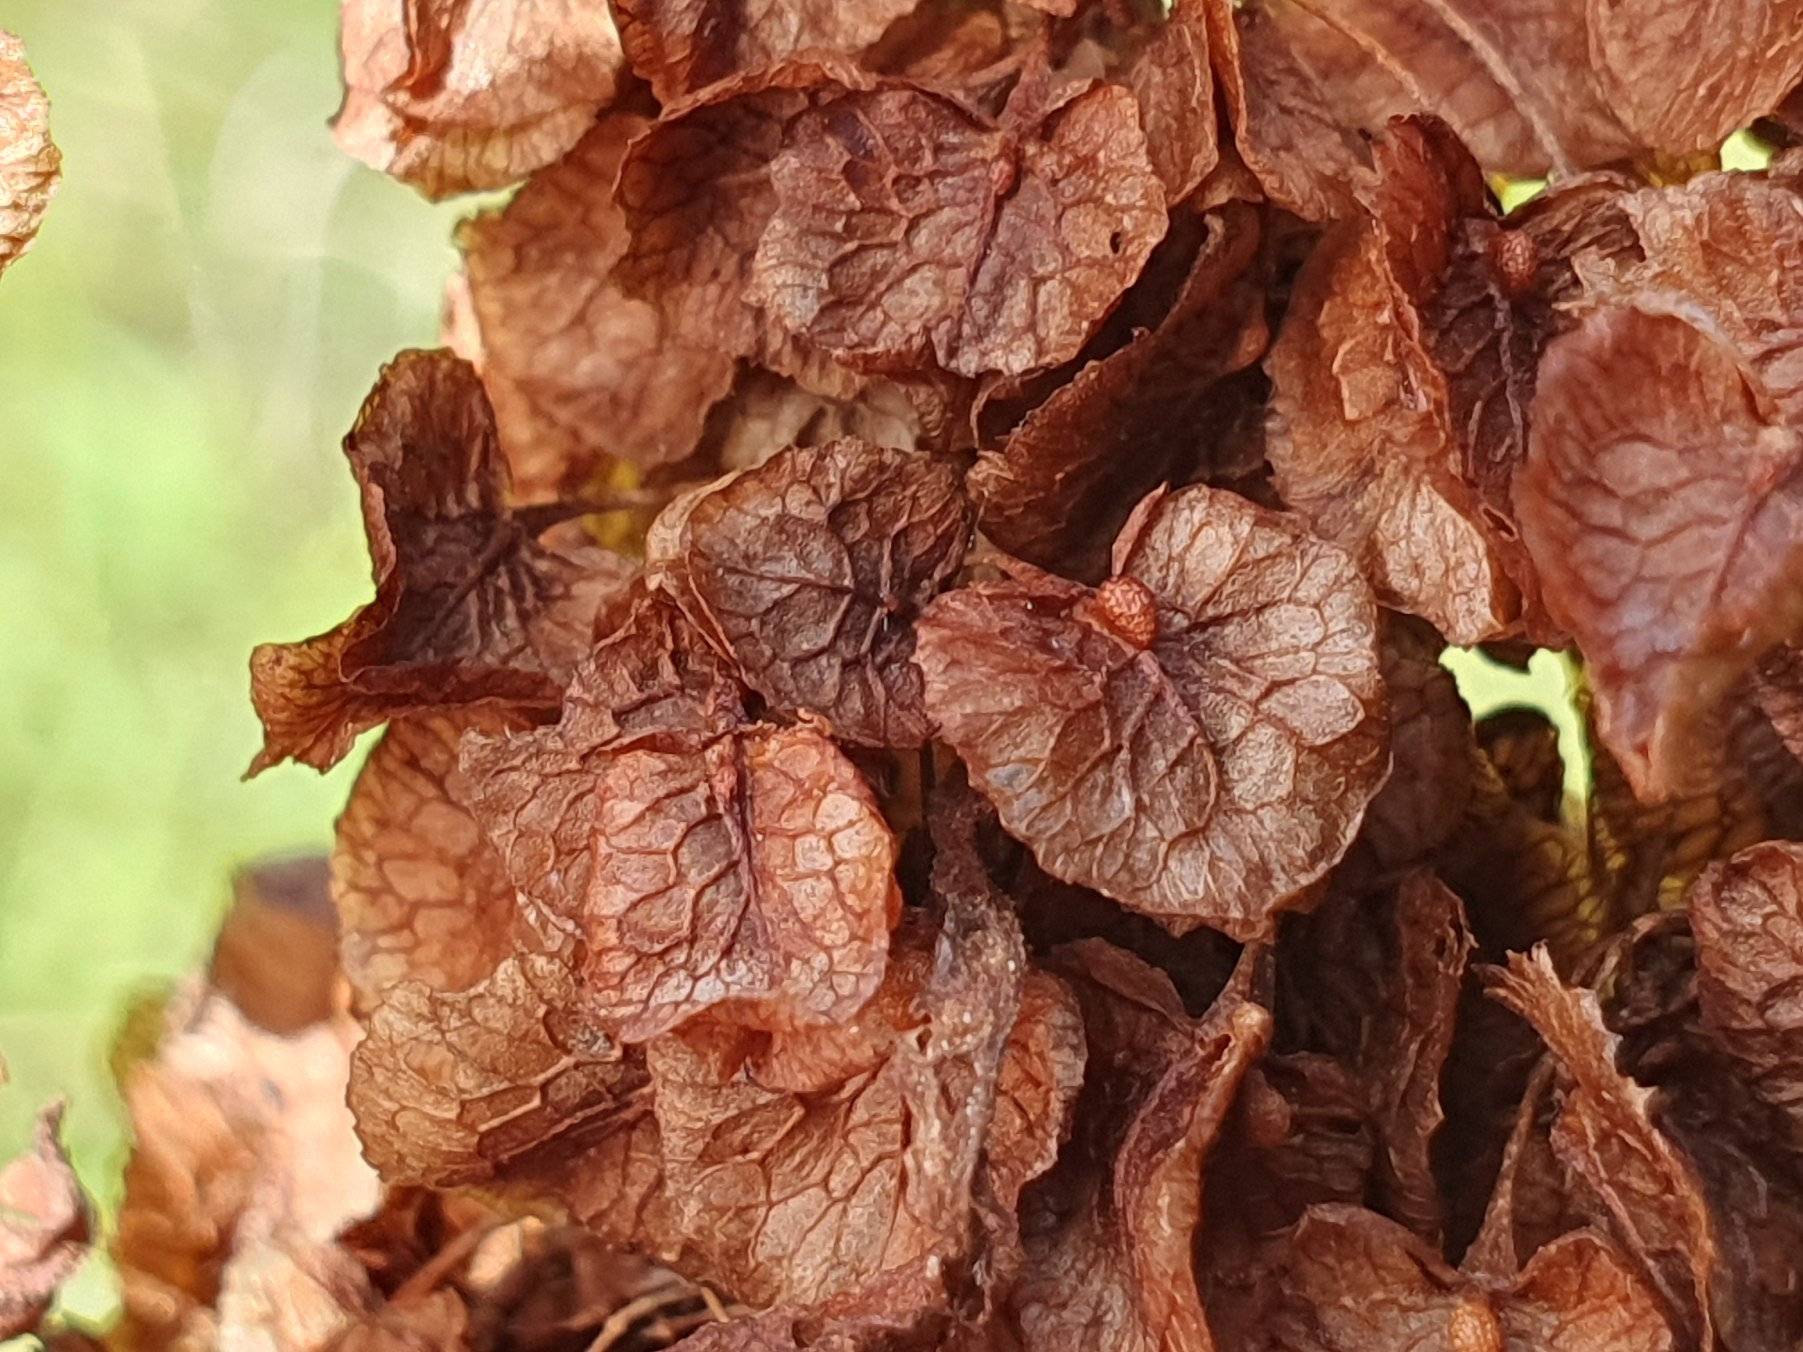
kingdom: Plantae
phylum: Tracheophyta
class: Magnoliopsida
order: Caryophyllales
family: Polygonaceae
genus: Rumex
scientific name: Rumex longifolius
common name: By-skræppe
